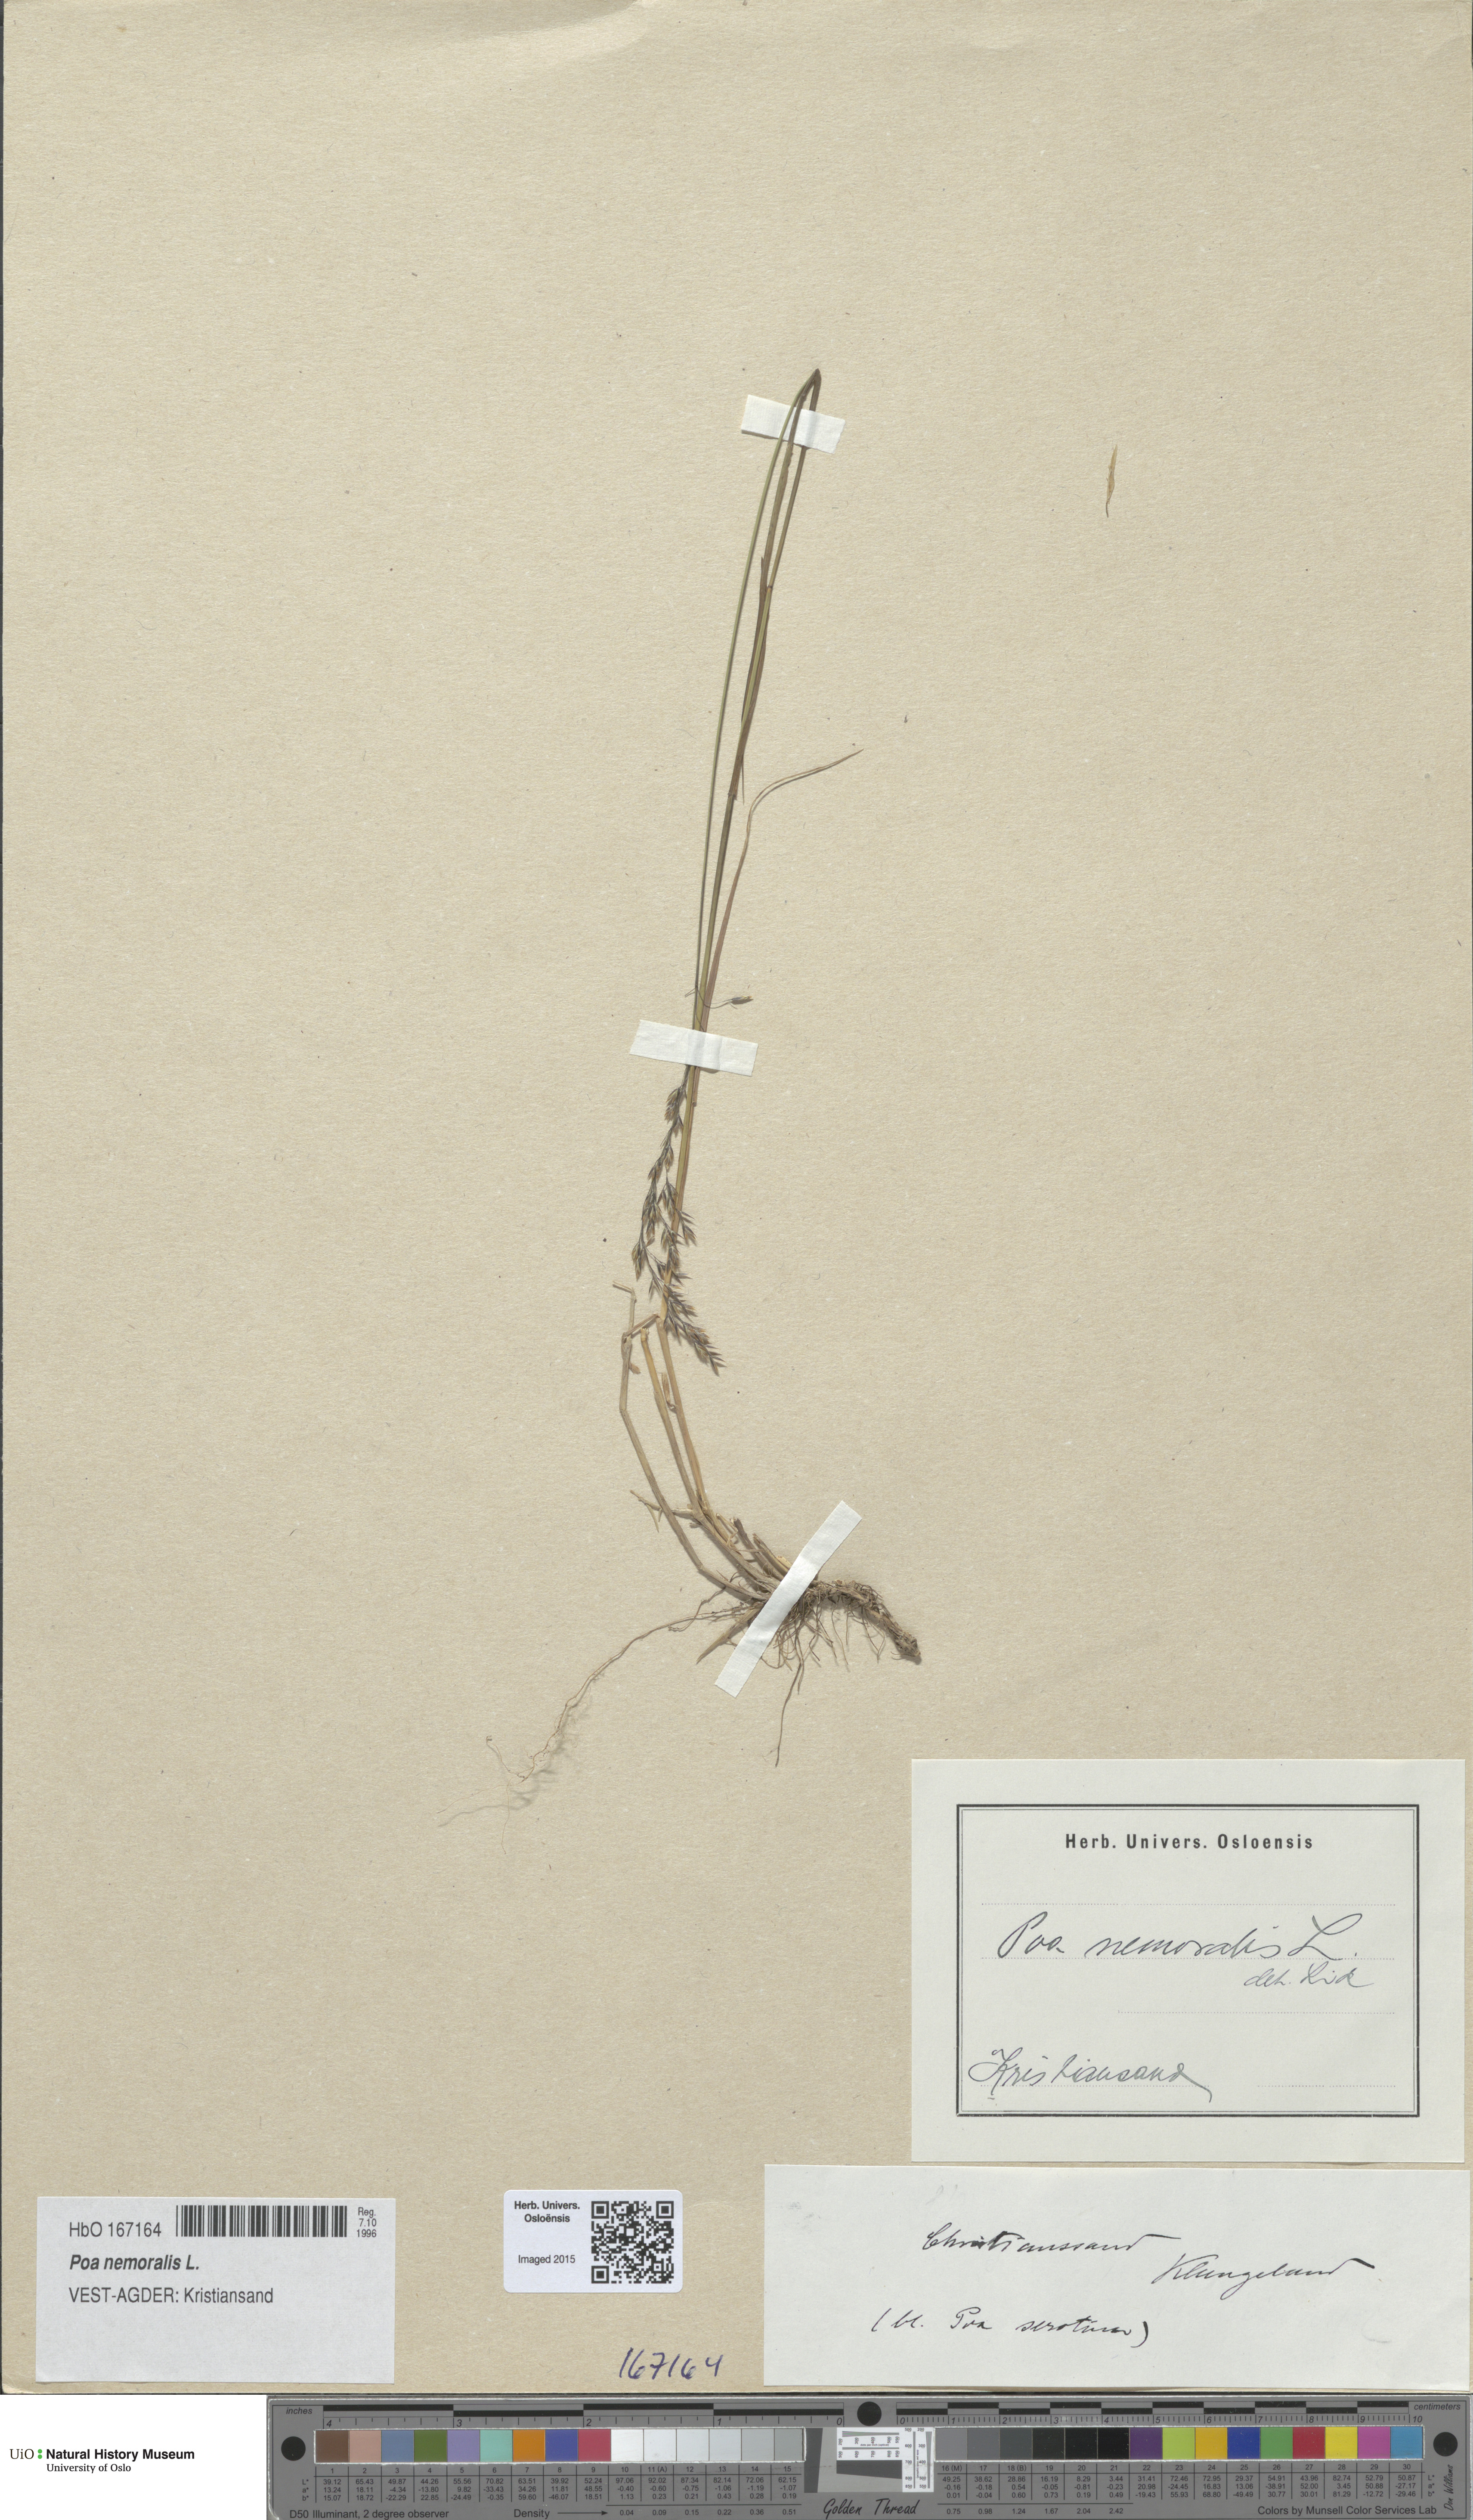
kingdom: Plantae
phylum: Tracheophyta
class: Liliopsida
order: Poales
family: Poaceae
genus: Poa
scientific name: Poa nemoralis
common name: Wood bluegrass
